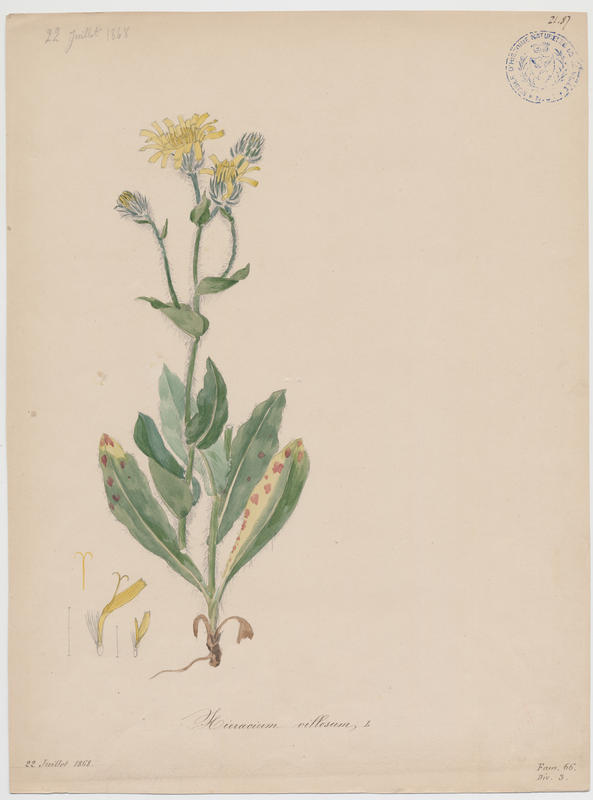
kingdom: Plantae
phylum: Tracheophyta
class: Magnoliopsida
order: Asterales
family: Asteraceae
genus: Hieracium
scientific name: Hieracium villosum
